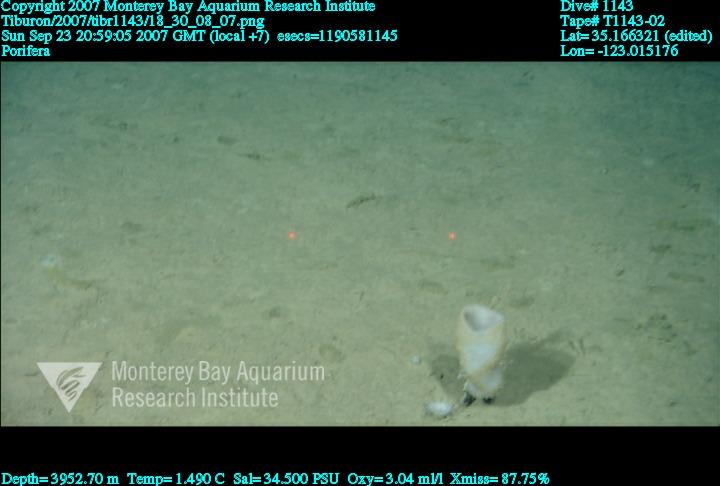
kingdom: Animalia
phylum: Porifera
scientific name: Porifera
